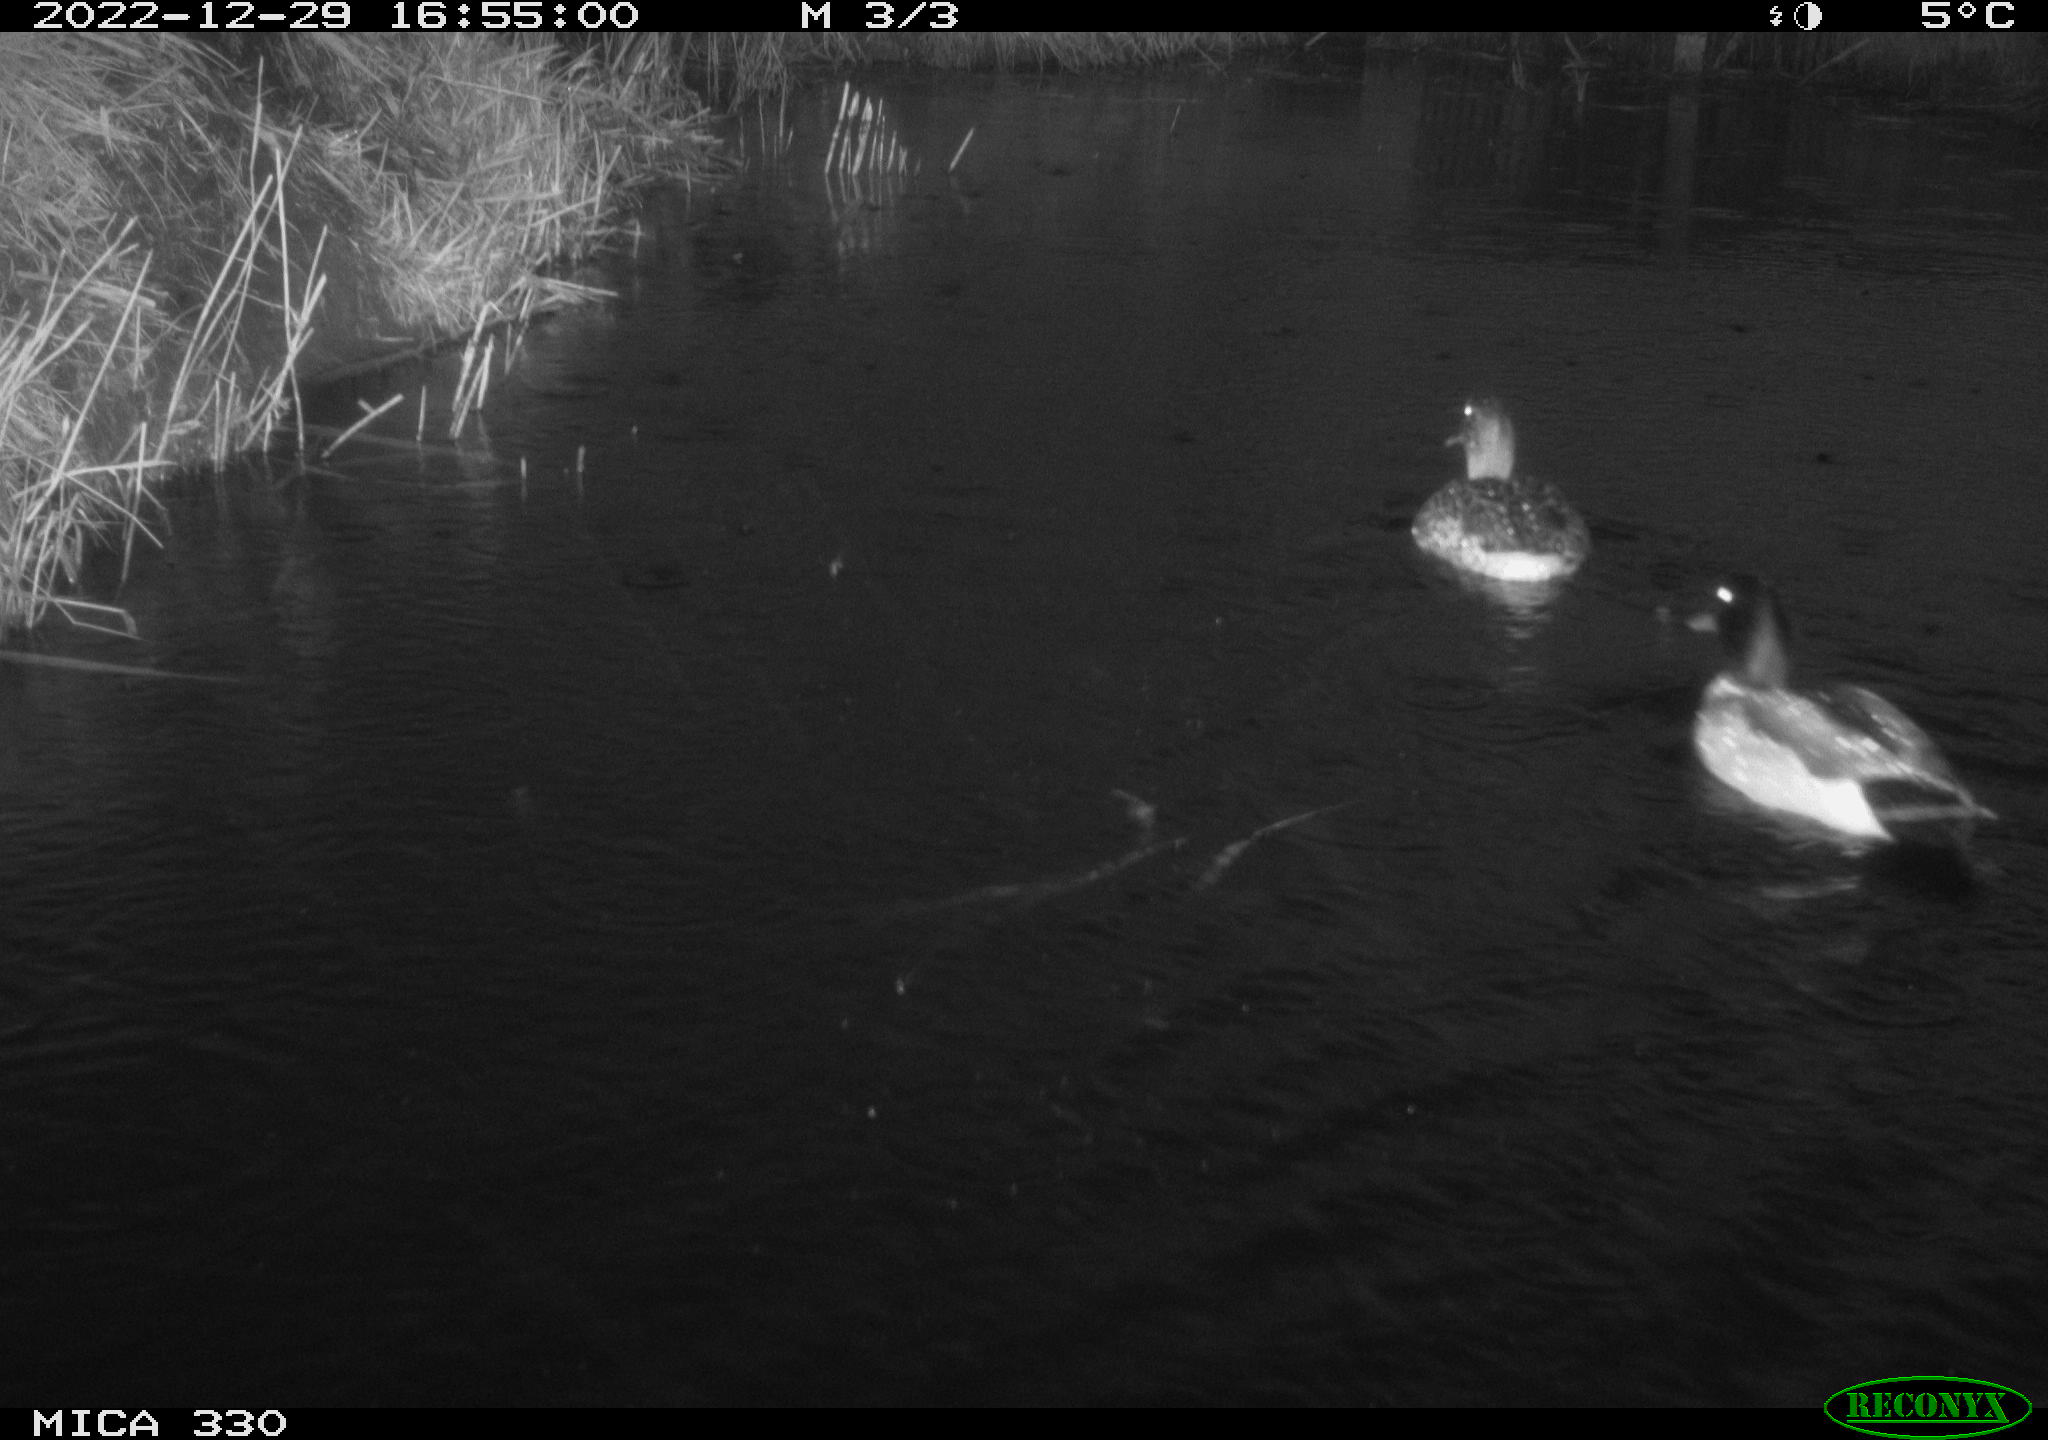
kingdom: Animalia
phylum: Chordata
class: Aves
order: Anseriformes
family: Anatidae
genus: Anas
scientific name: Anas
